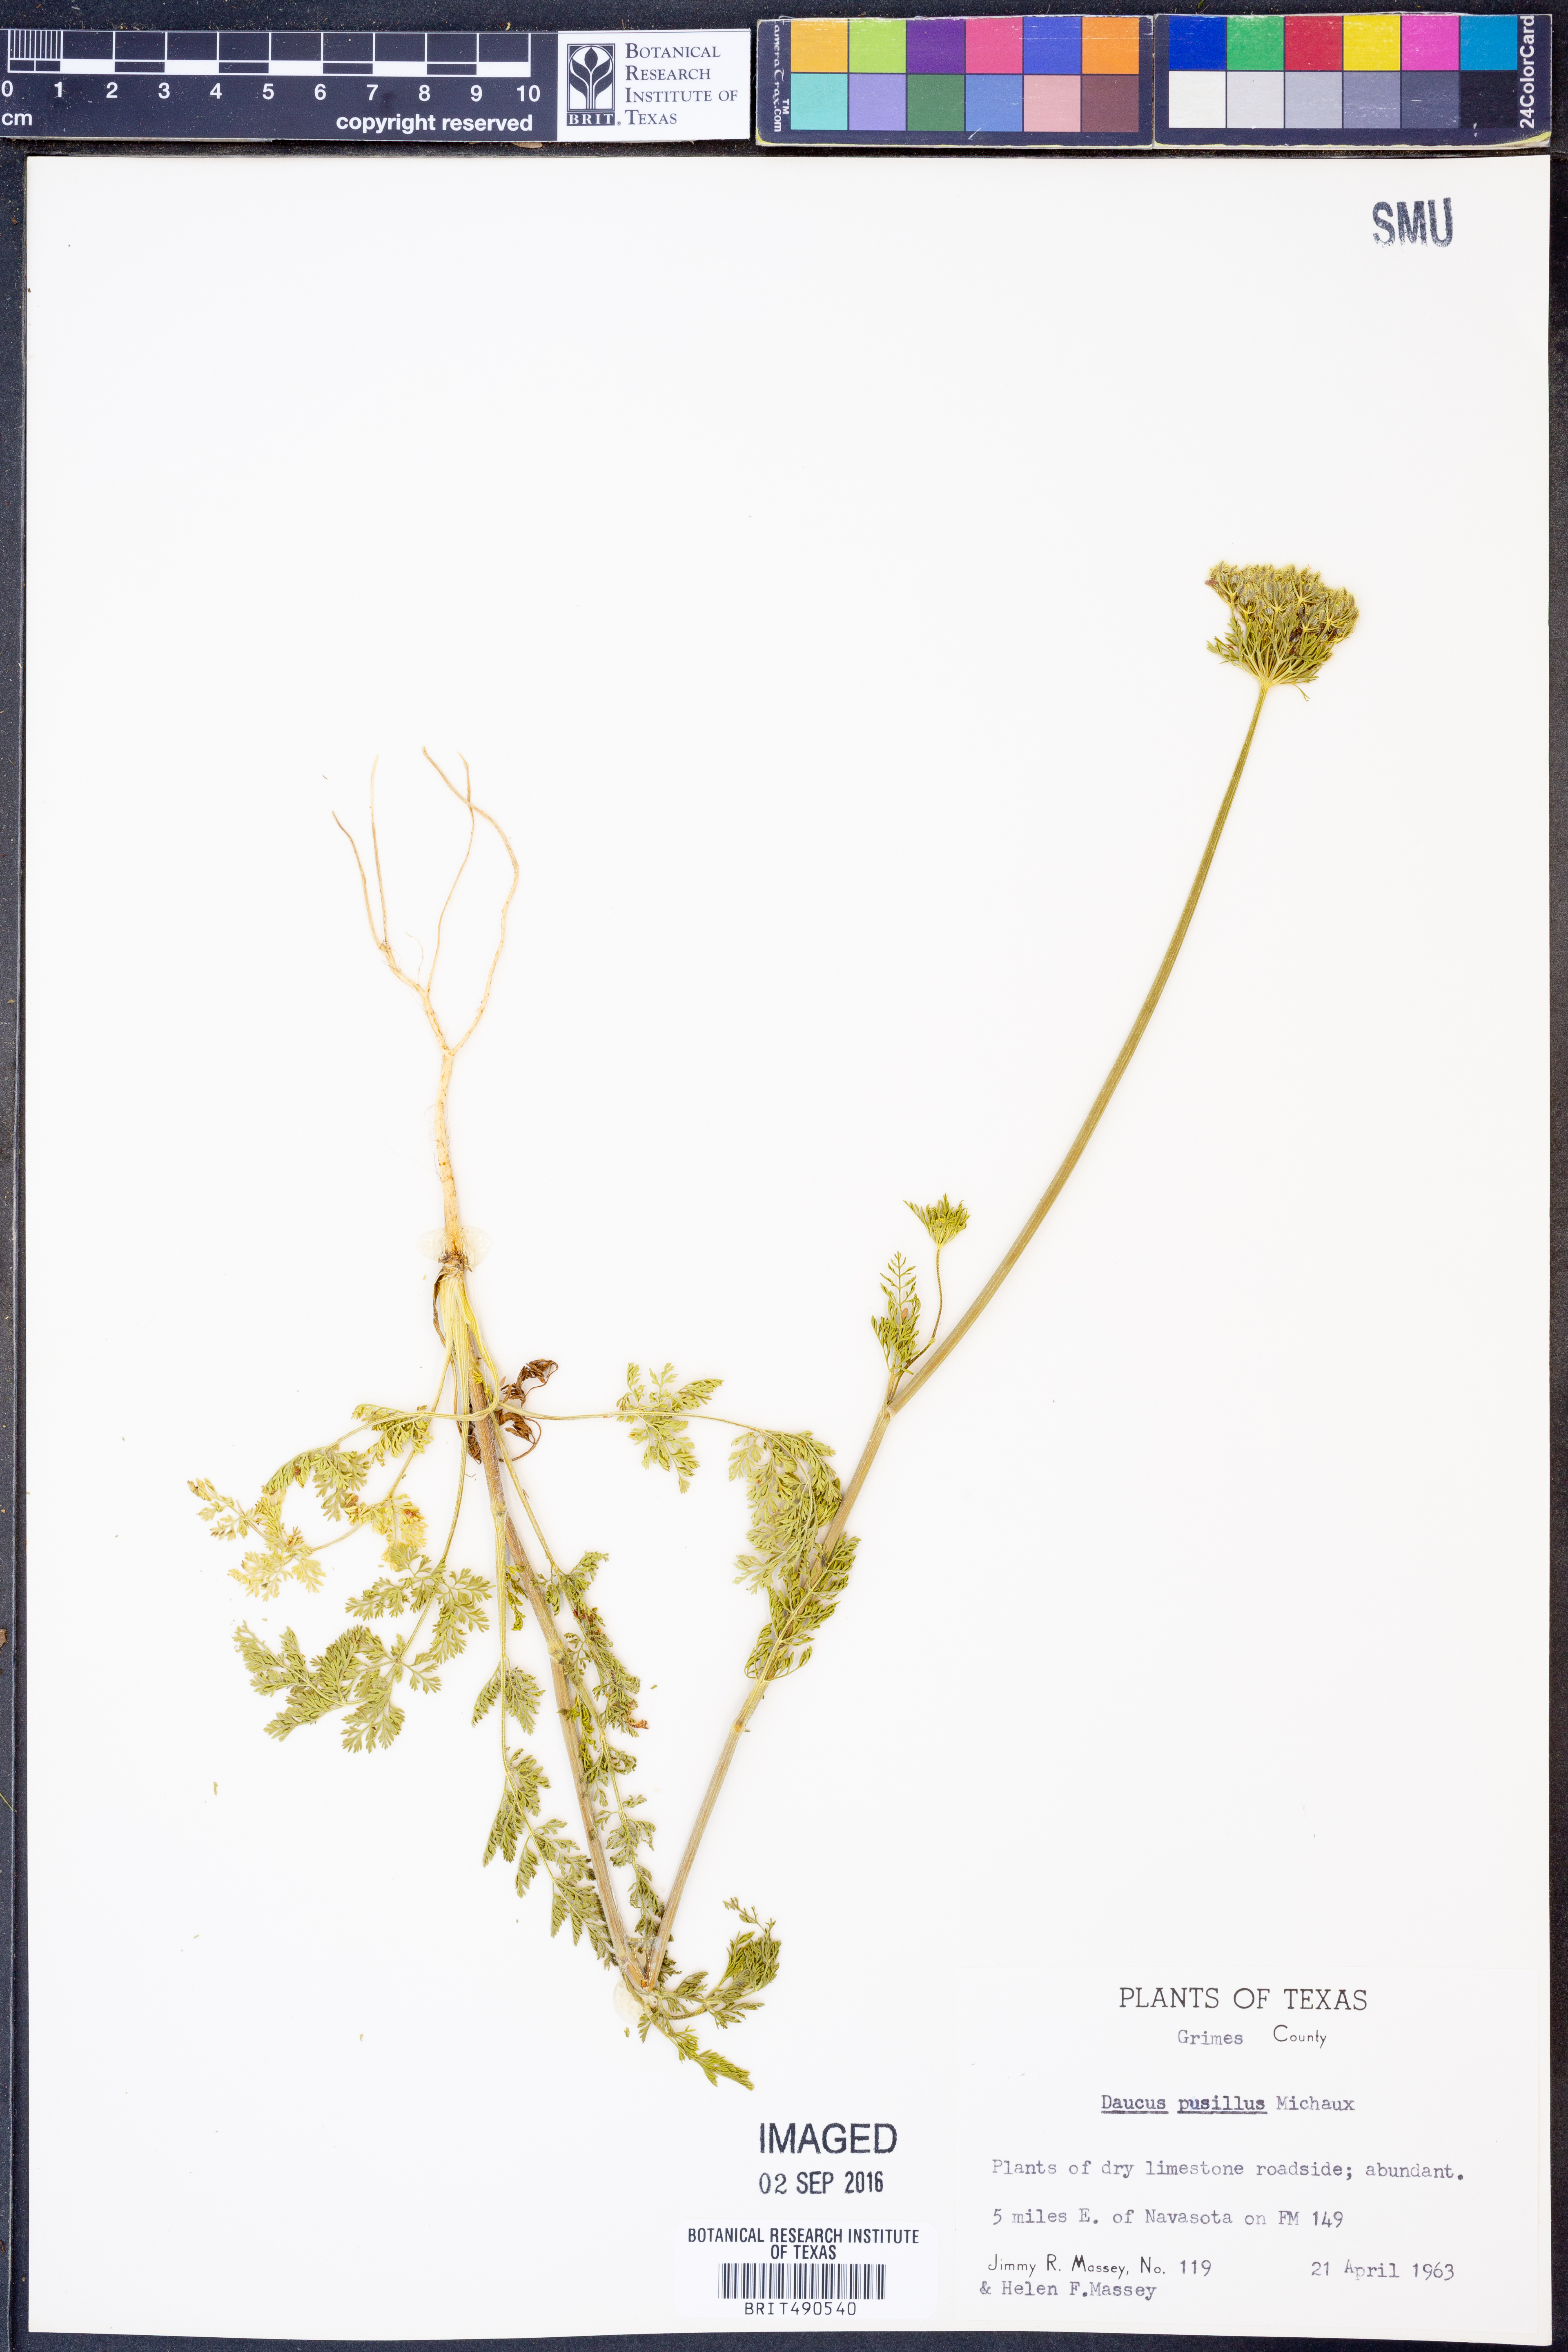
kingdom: Plantae
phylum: Tracheophyta
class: Magnoliopsida
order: Apiales
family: Apiaceae
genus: Daucus
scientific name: Daucus pusillus
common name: Southwest wild carrot
